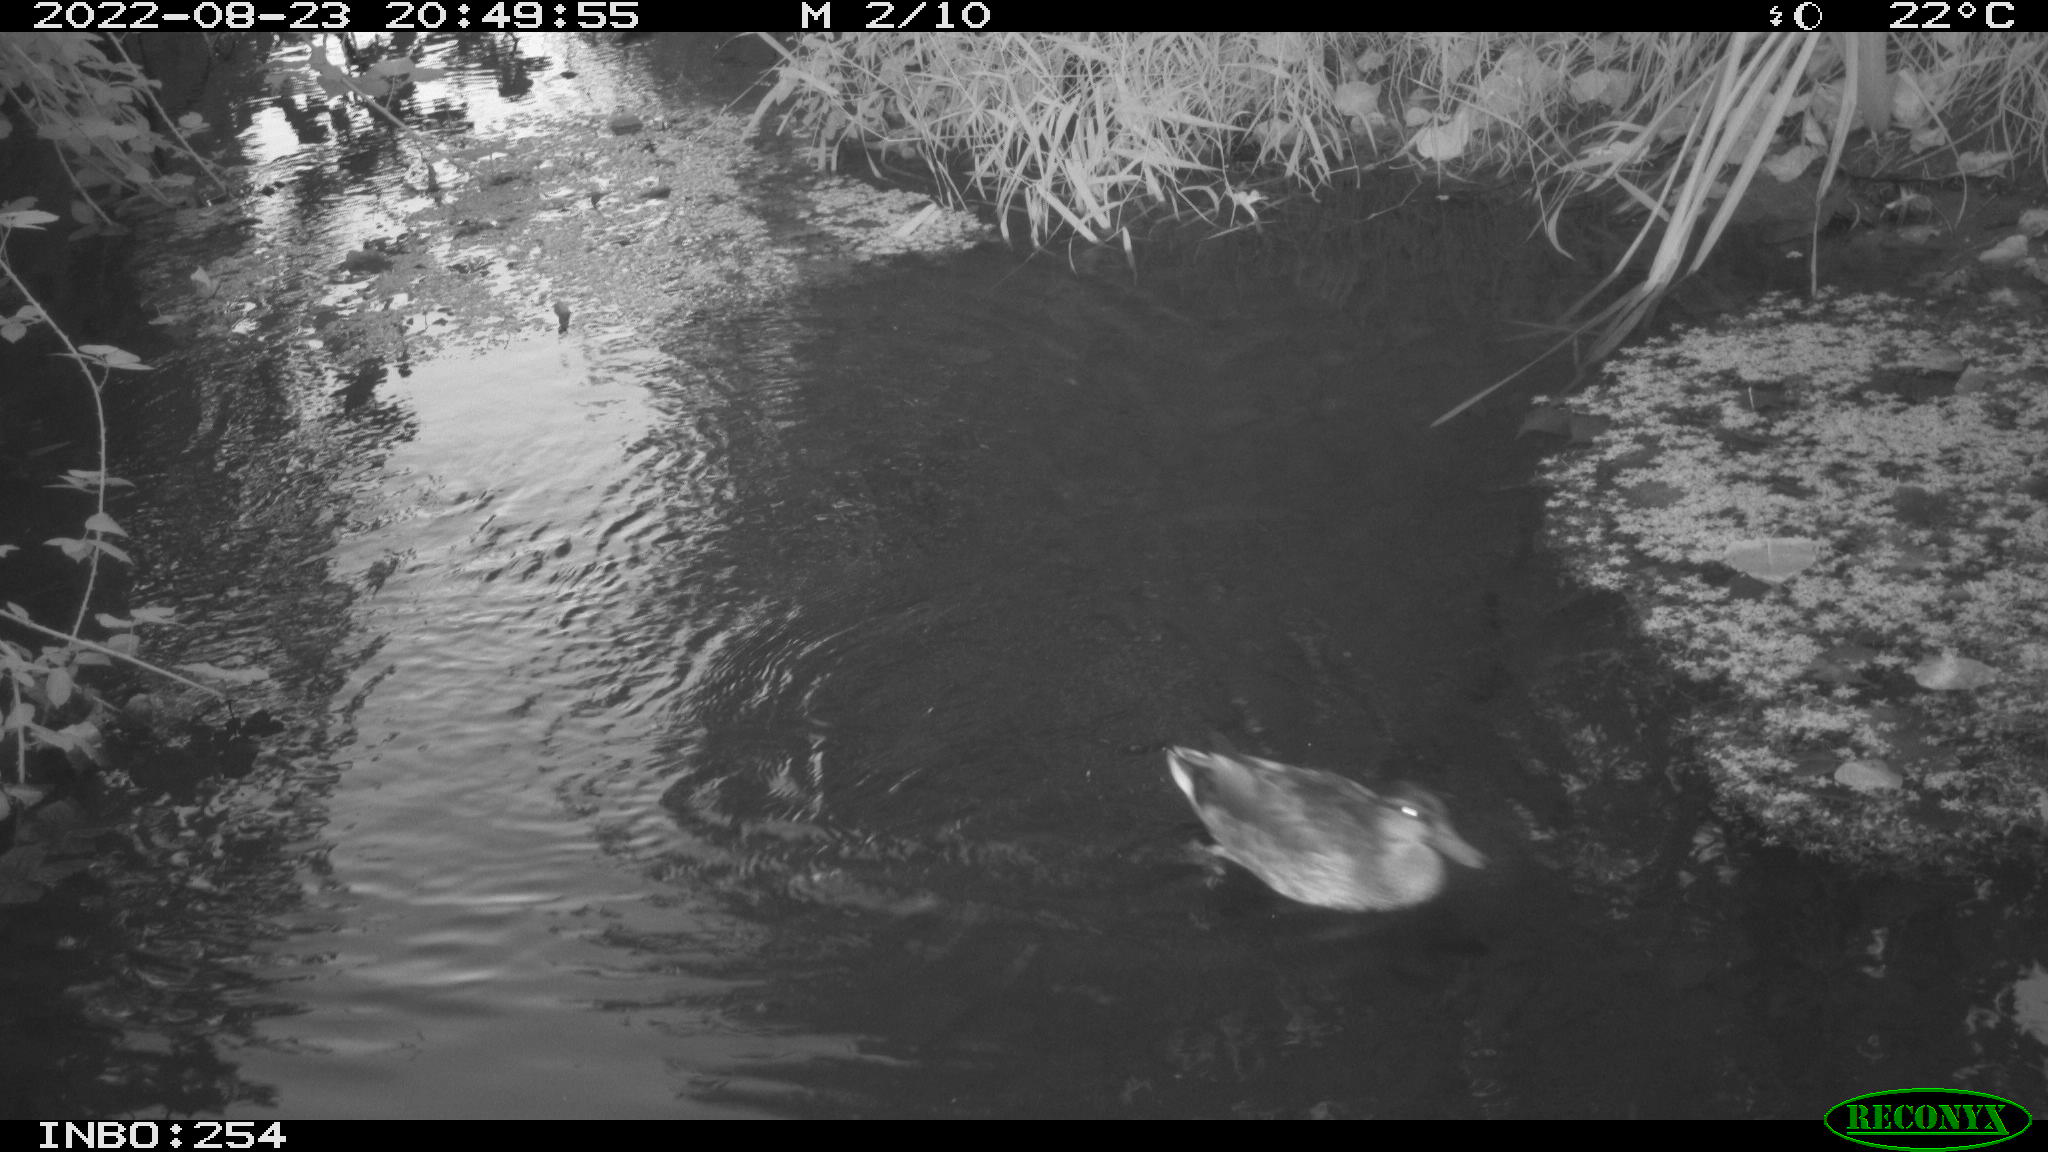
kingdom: Animalia
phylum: Chordata
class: Aves
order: Anseriformes
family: Anatidae
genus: Anas
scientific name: Anas platyrhynchos
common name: Mallard
